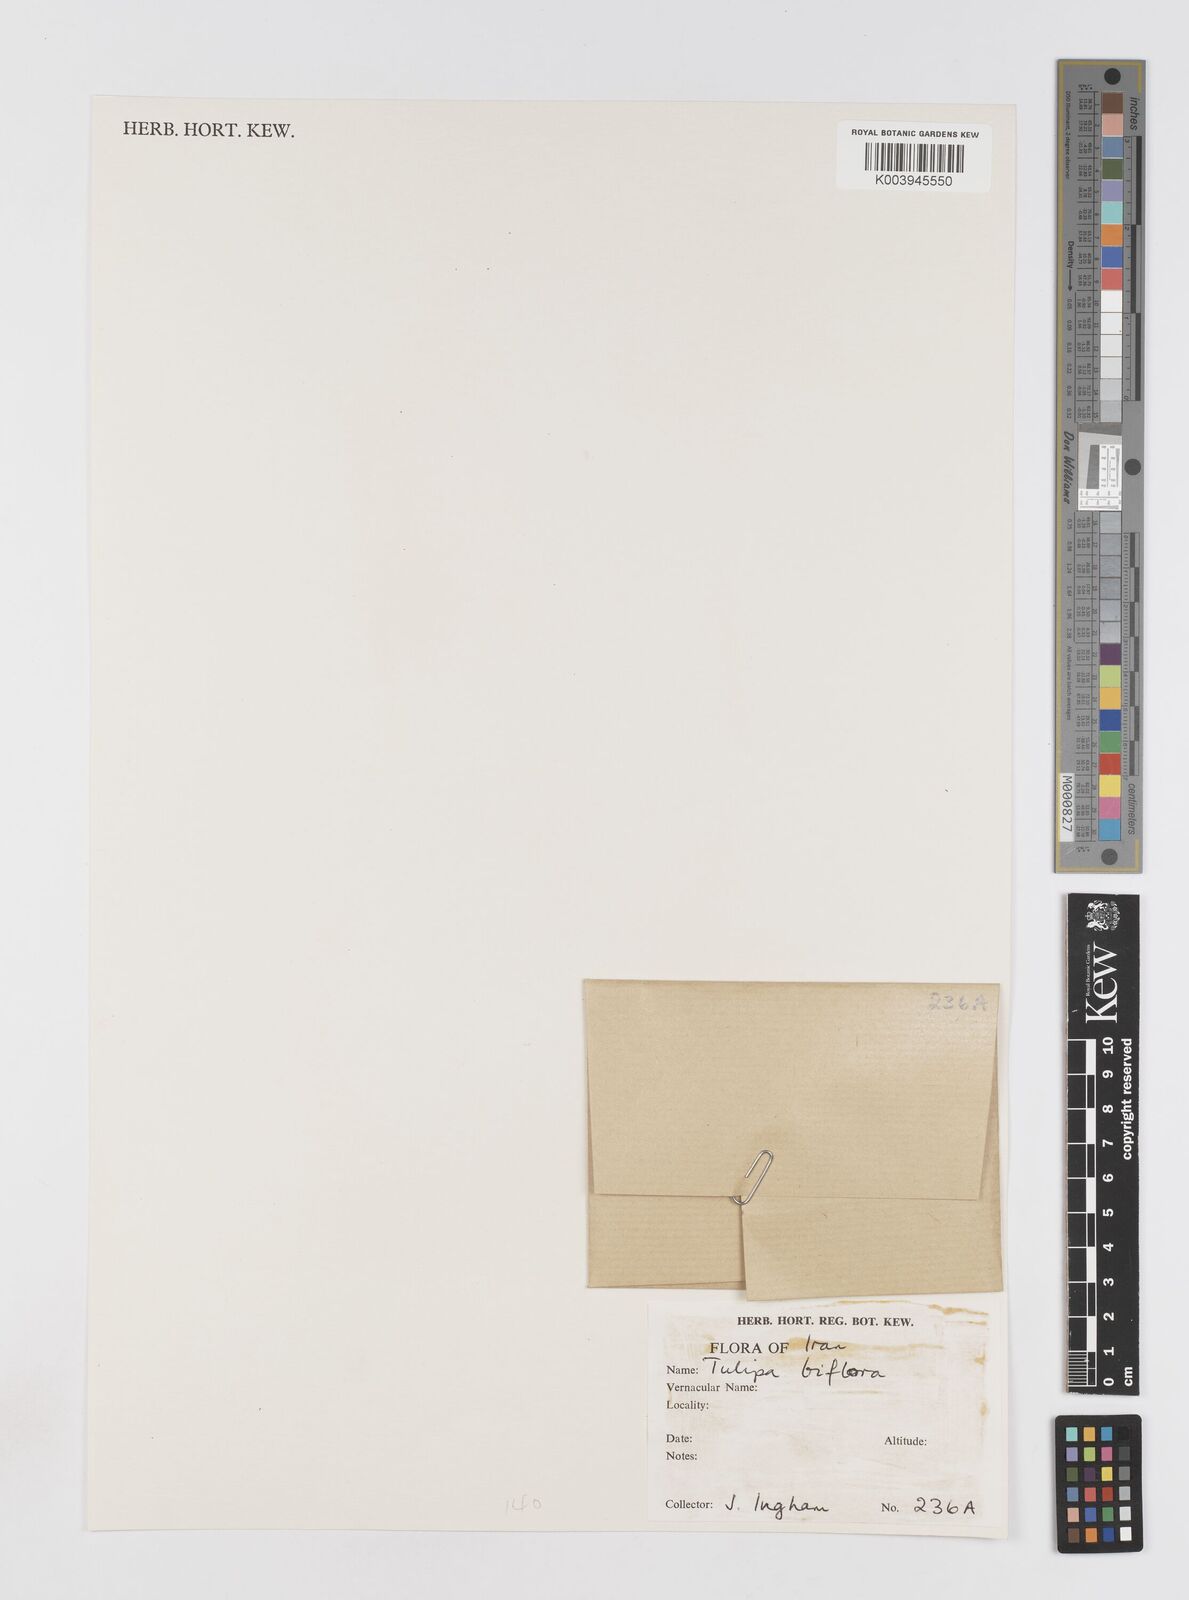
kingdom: Plantae
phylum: Tracheophyta
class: Liliopsida
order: Liliales
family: Liliaceae
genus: Tulipa
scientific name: Tulipa biflora
